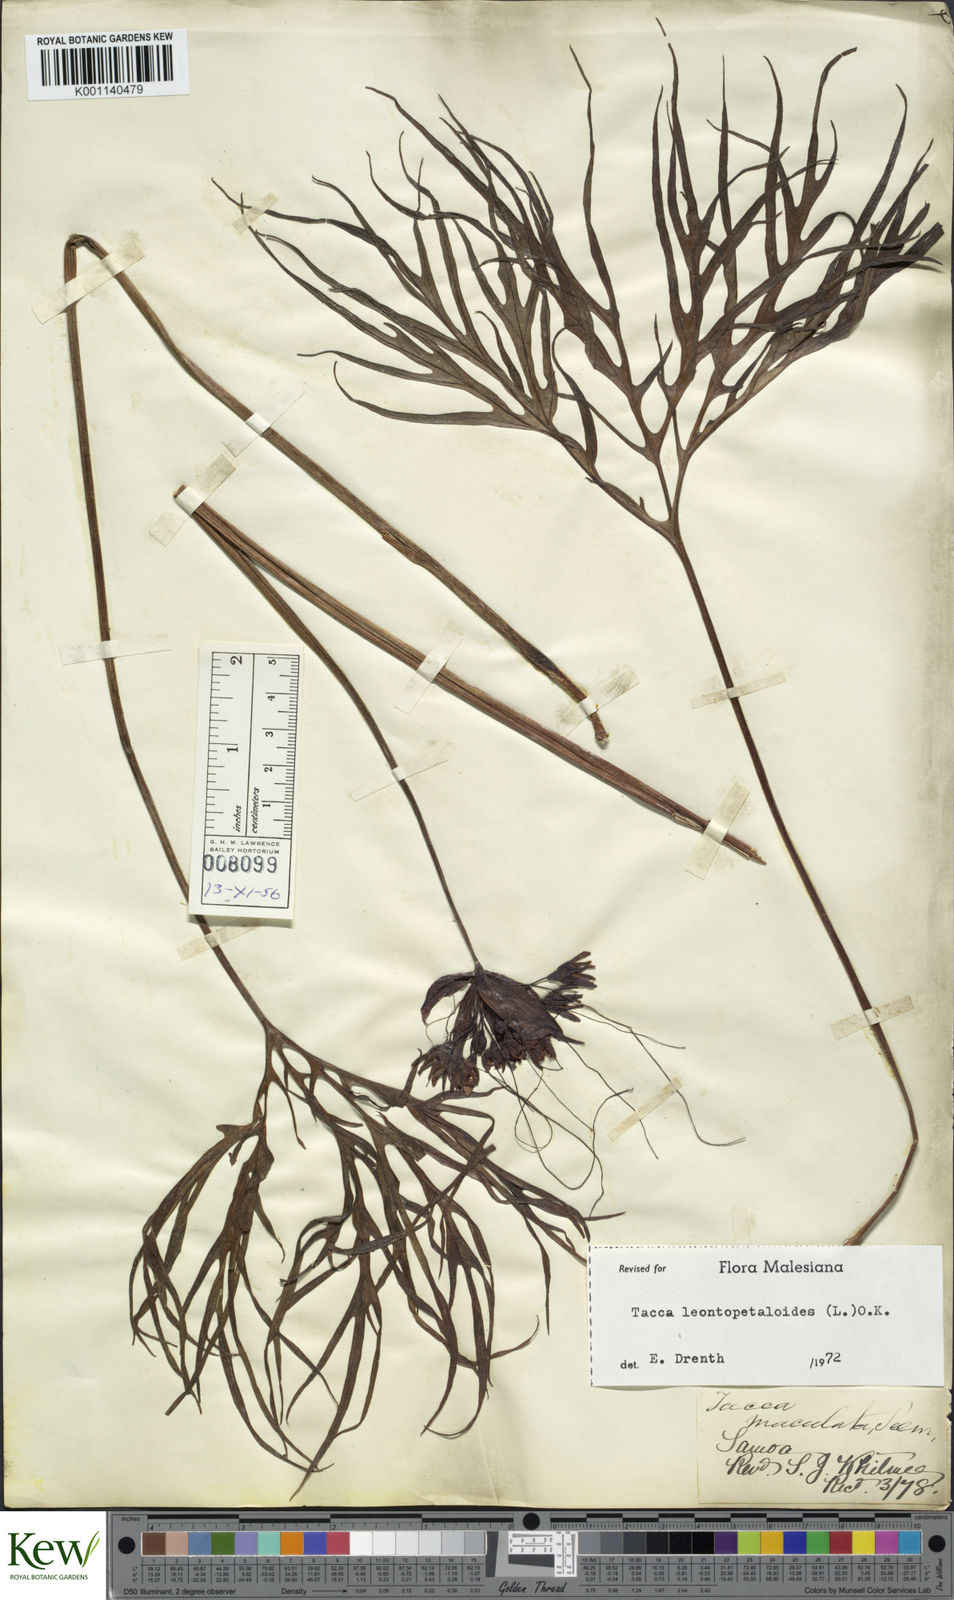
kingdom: Plantae
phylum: Tracheophyta
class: Liliopsida
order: Dioscoreales
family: Dioscoreaceae
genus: Tacca
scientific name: Tacca leontopetaloides
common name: Arrowroot
